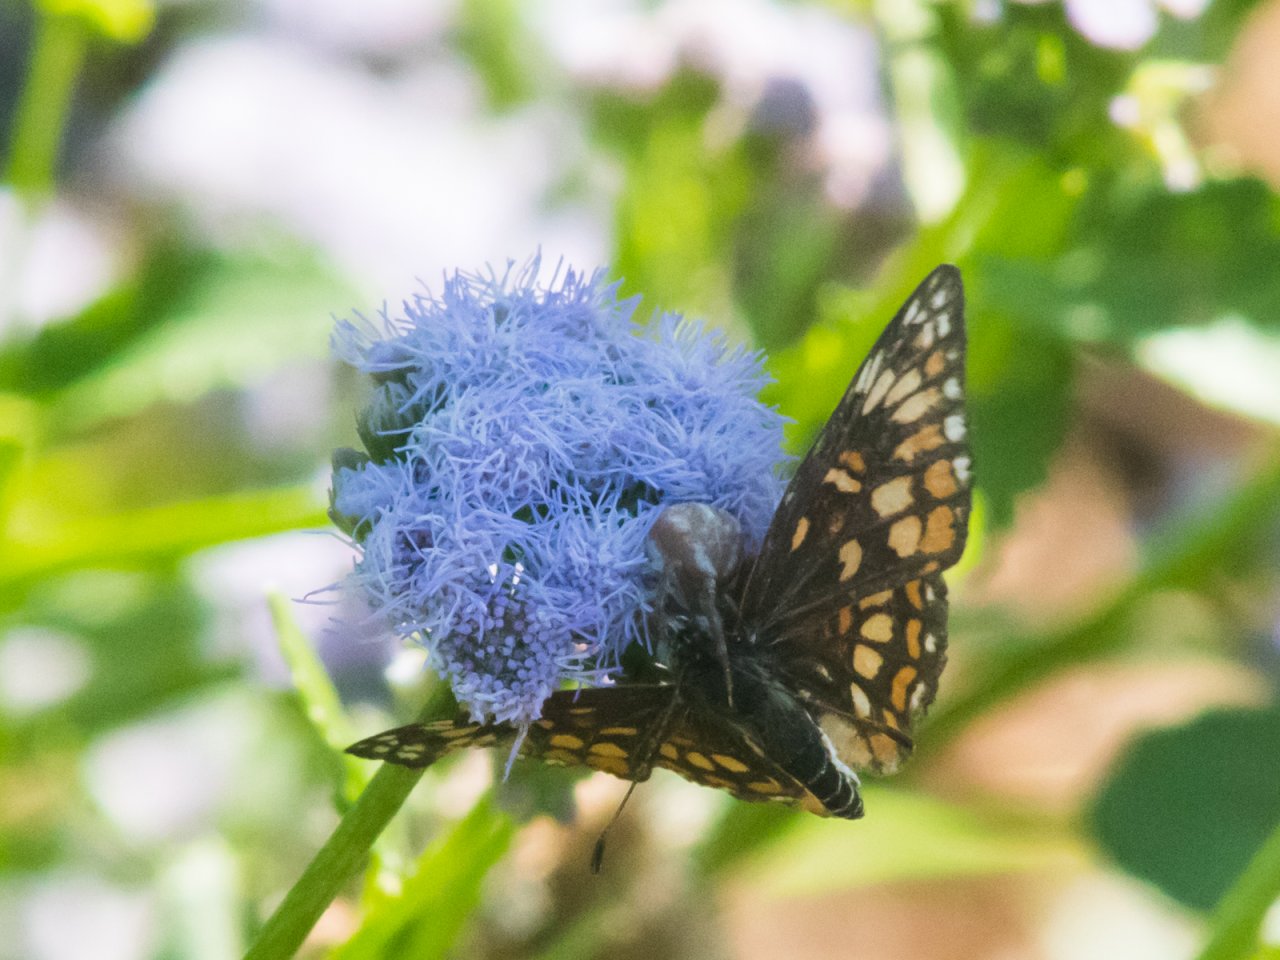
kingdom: Animalia
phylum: Arthropoda
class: Insecta
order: Lepidoptera
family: Nymphalidae
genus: Thessalia
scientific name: Thessalia theona
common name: Theona Checkerspot
